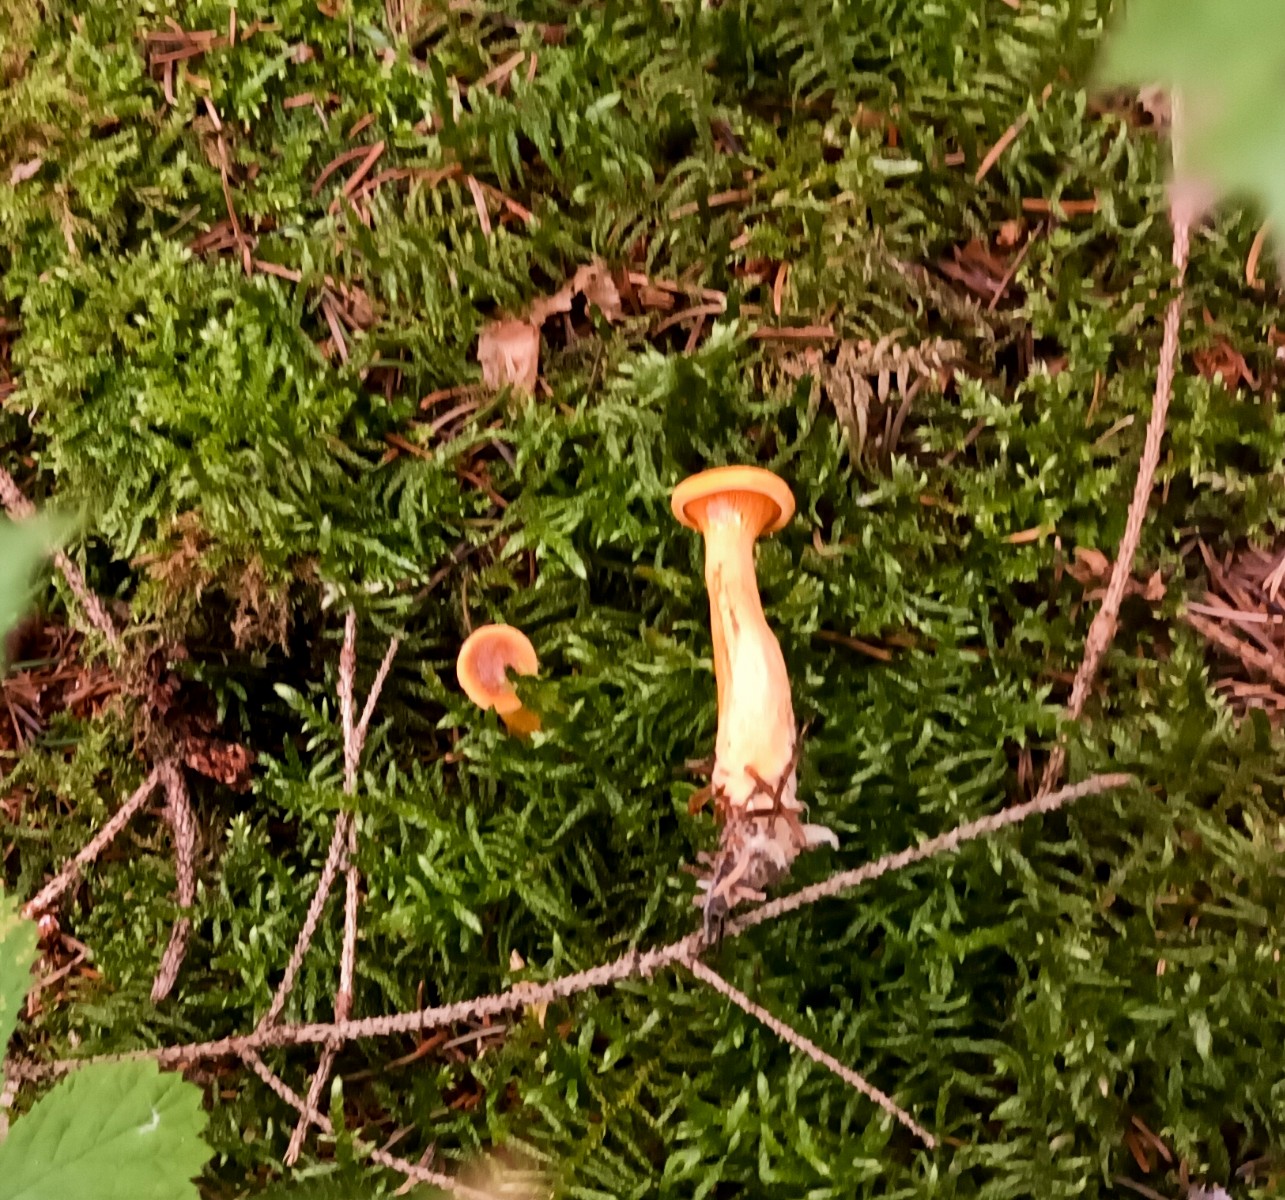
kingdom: Fungi
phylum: Basidiomycota
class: Agaricomycetes
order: Boletales
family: Hygrophoropsidaceae
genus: Hygrophoropsis
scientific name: Hygrophoropsis
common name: orangekantarel
